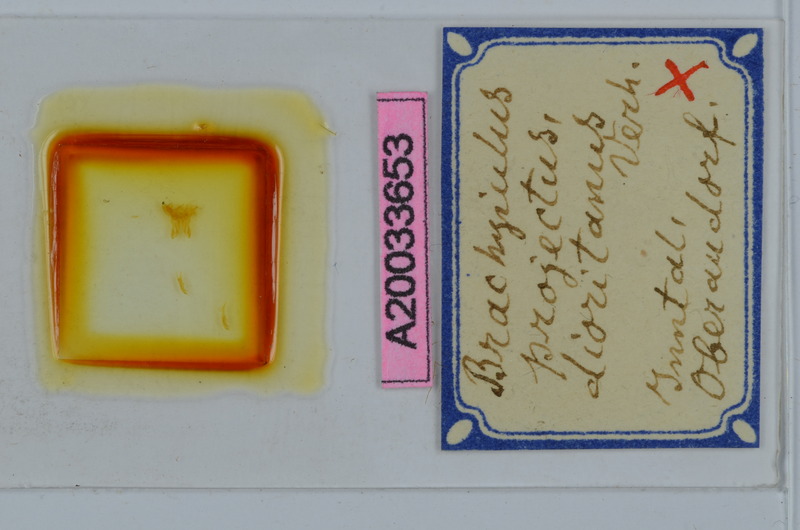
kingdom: Animalia
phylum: Arthropoda
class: Diplopoda
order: Julida
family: Julidae
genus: Megaphyllum
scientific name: Megaphyllum projectum
